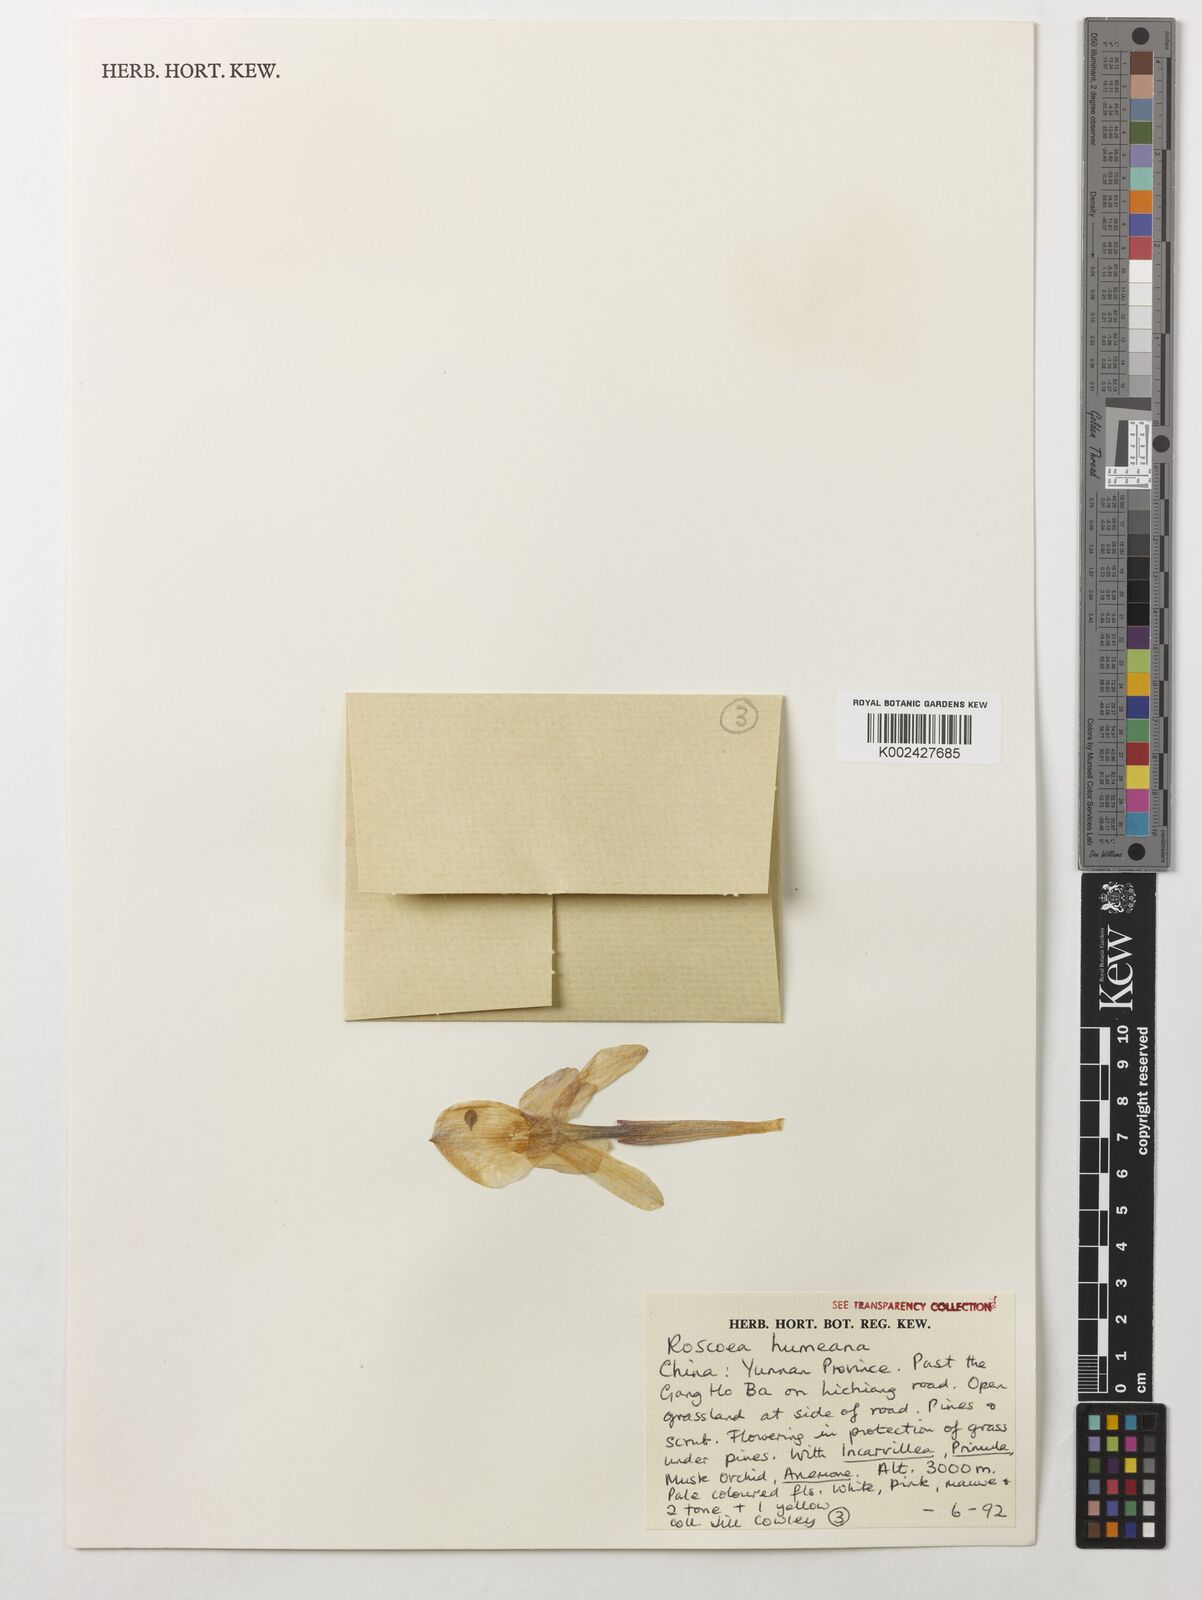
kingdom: Plantae
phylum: Tracheophyta
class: Liliopsida
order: Zingiberales
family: Zingiberaceae
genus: Roscoea
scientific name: Roscoea humeana
